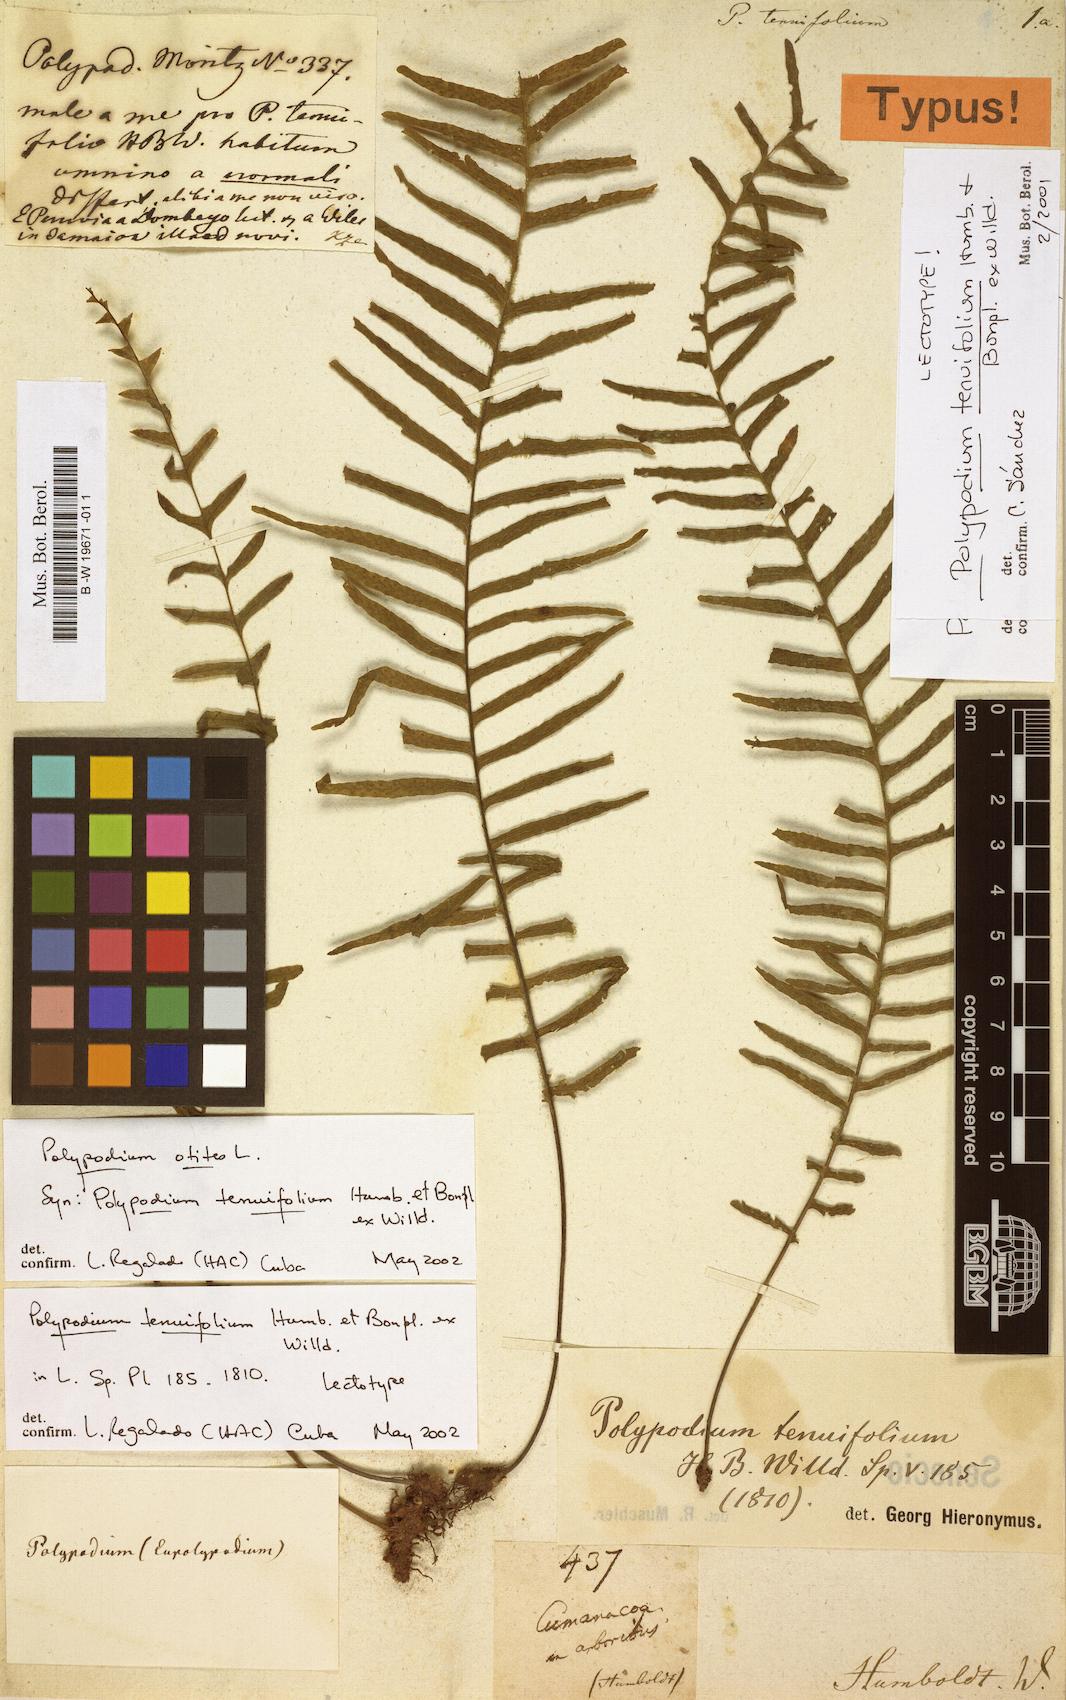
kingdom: Plantae
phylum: Tracheophyta
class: Polypodiopsida
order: Polypodiales
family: Polypodiaceae
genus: Polypodium
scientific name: Polypodium otites
